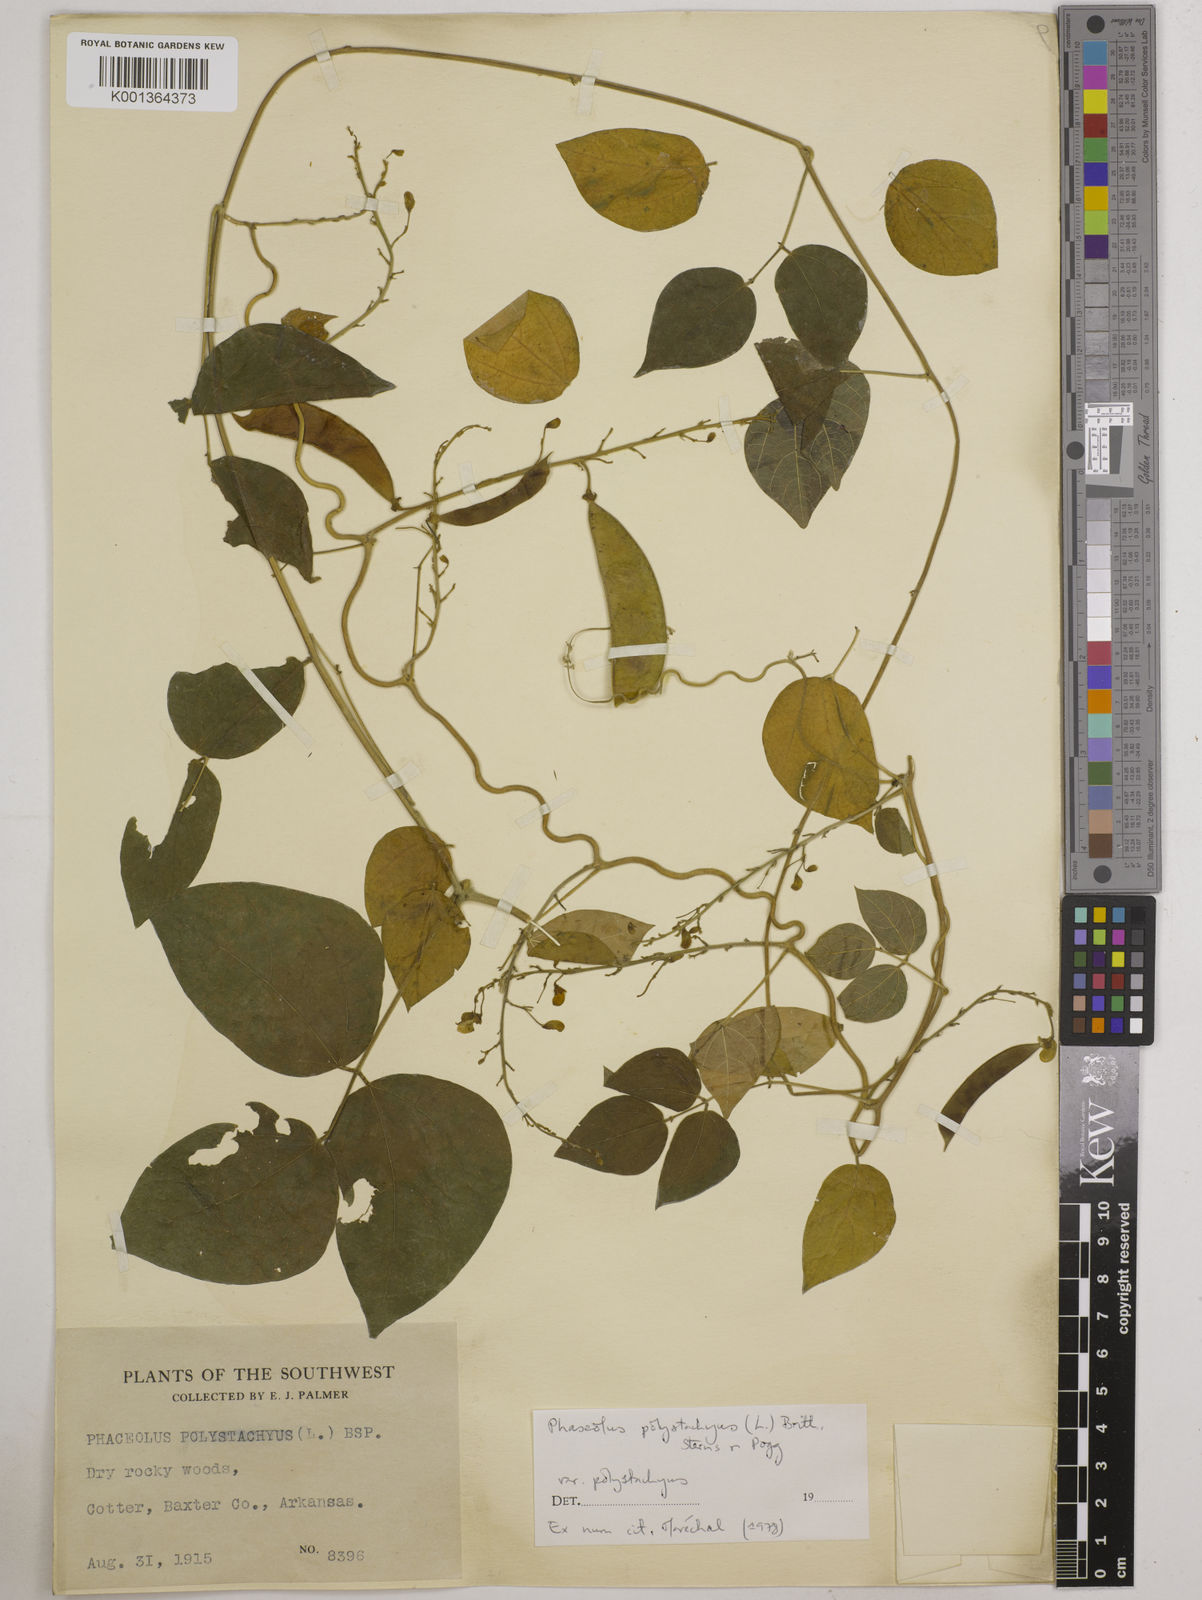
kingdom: Plantae
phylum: Tracheophyta
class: Magnoliopsida
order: Fabales
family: Fabaceae
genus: Phaseolus
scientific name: Phaseolus
